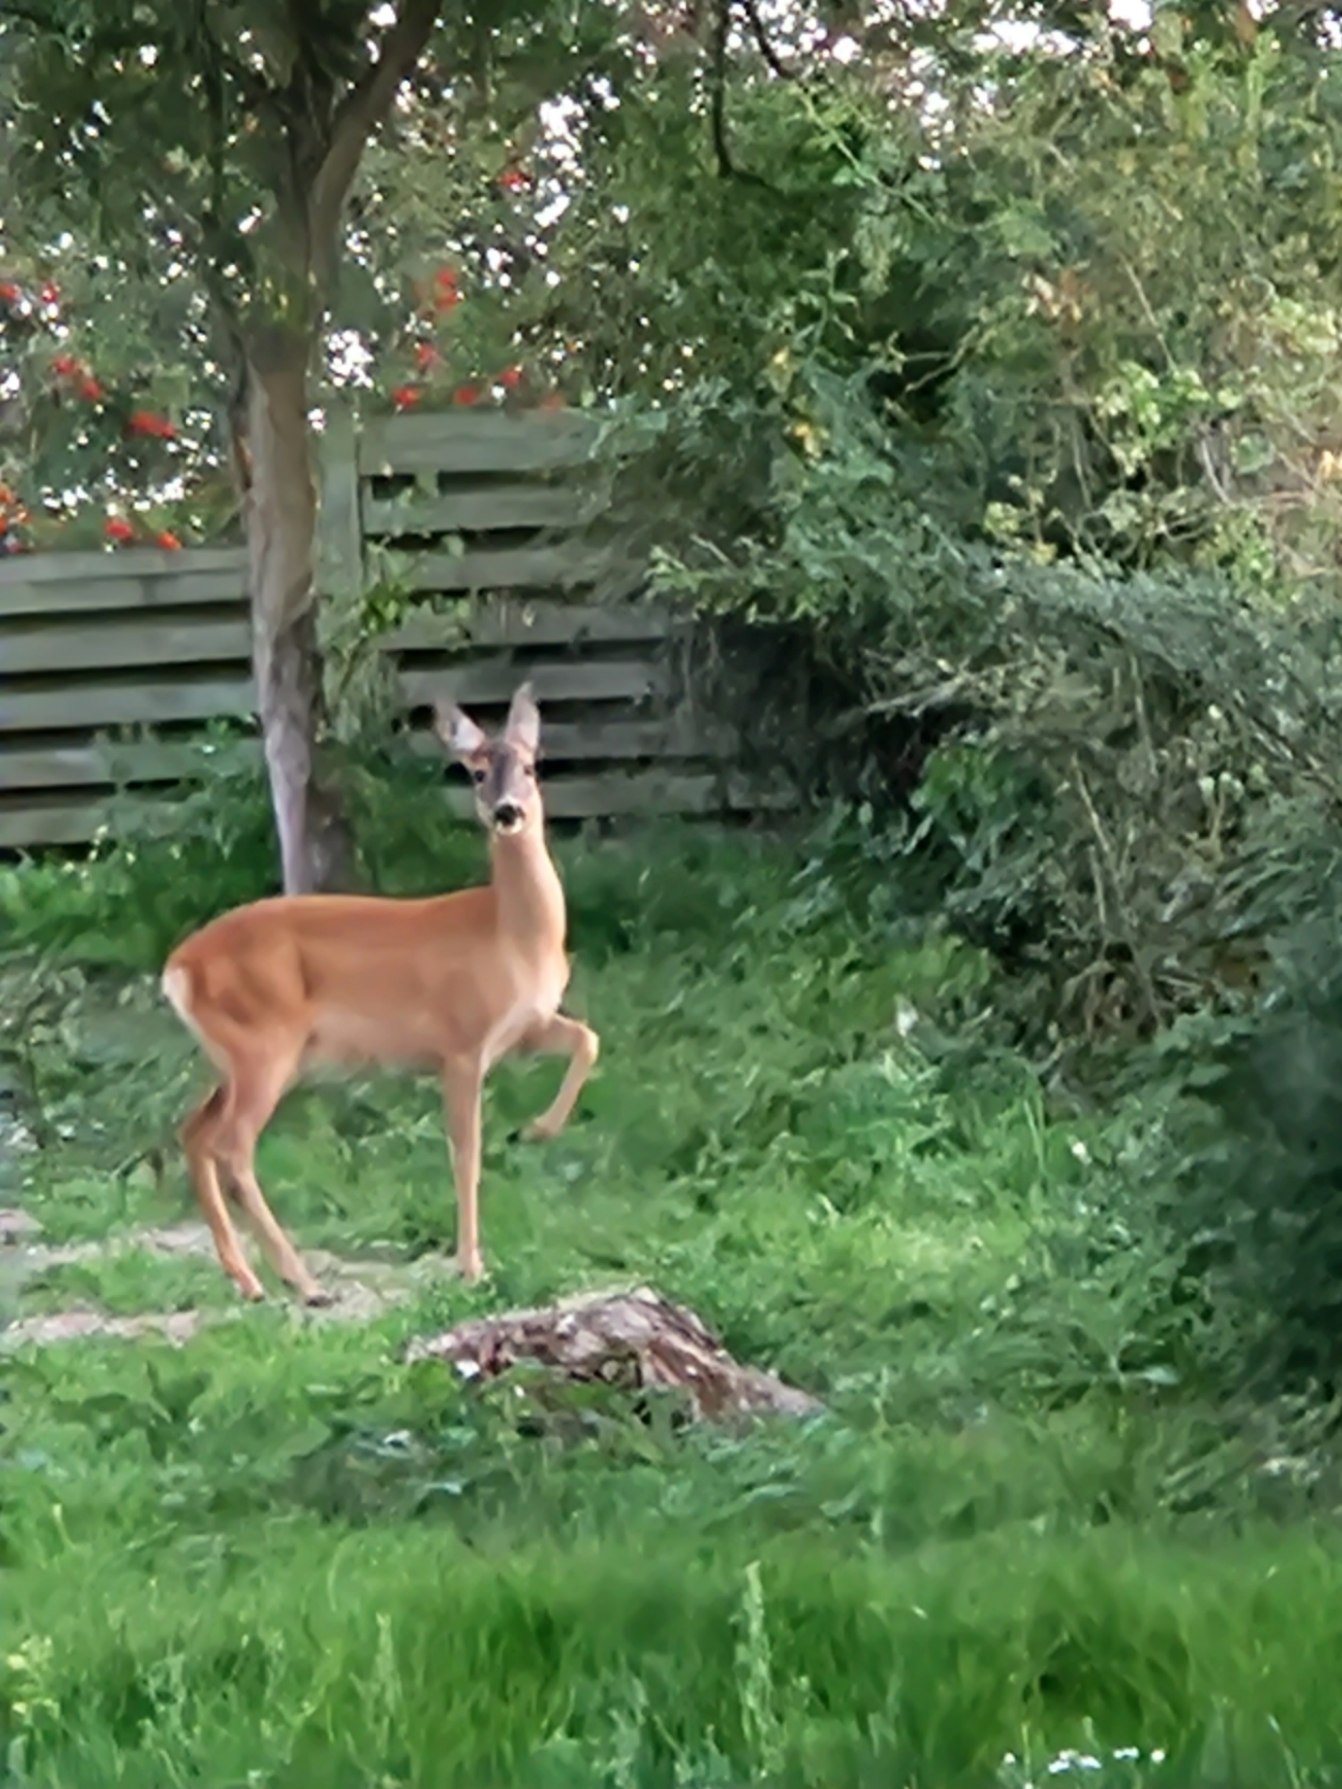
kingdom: Animalia
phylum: Chordata
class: Mammalia
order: Artiodactyla
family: Cervidae
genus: Capreolus
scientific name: Capreolus capreolus
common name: Rådyr
